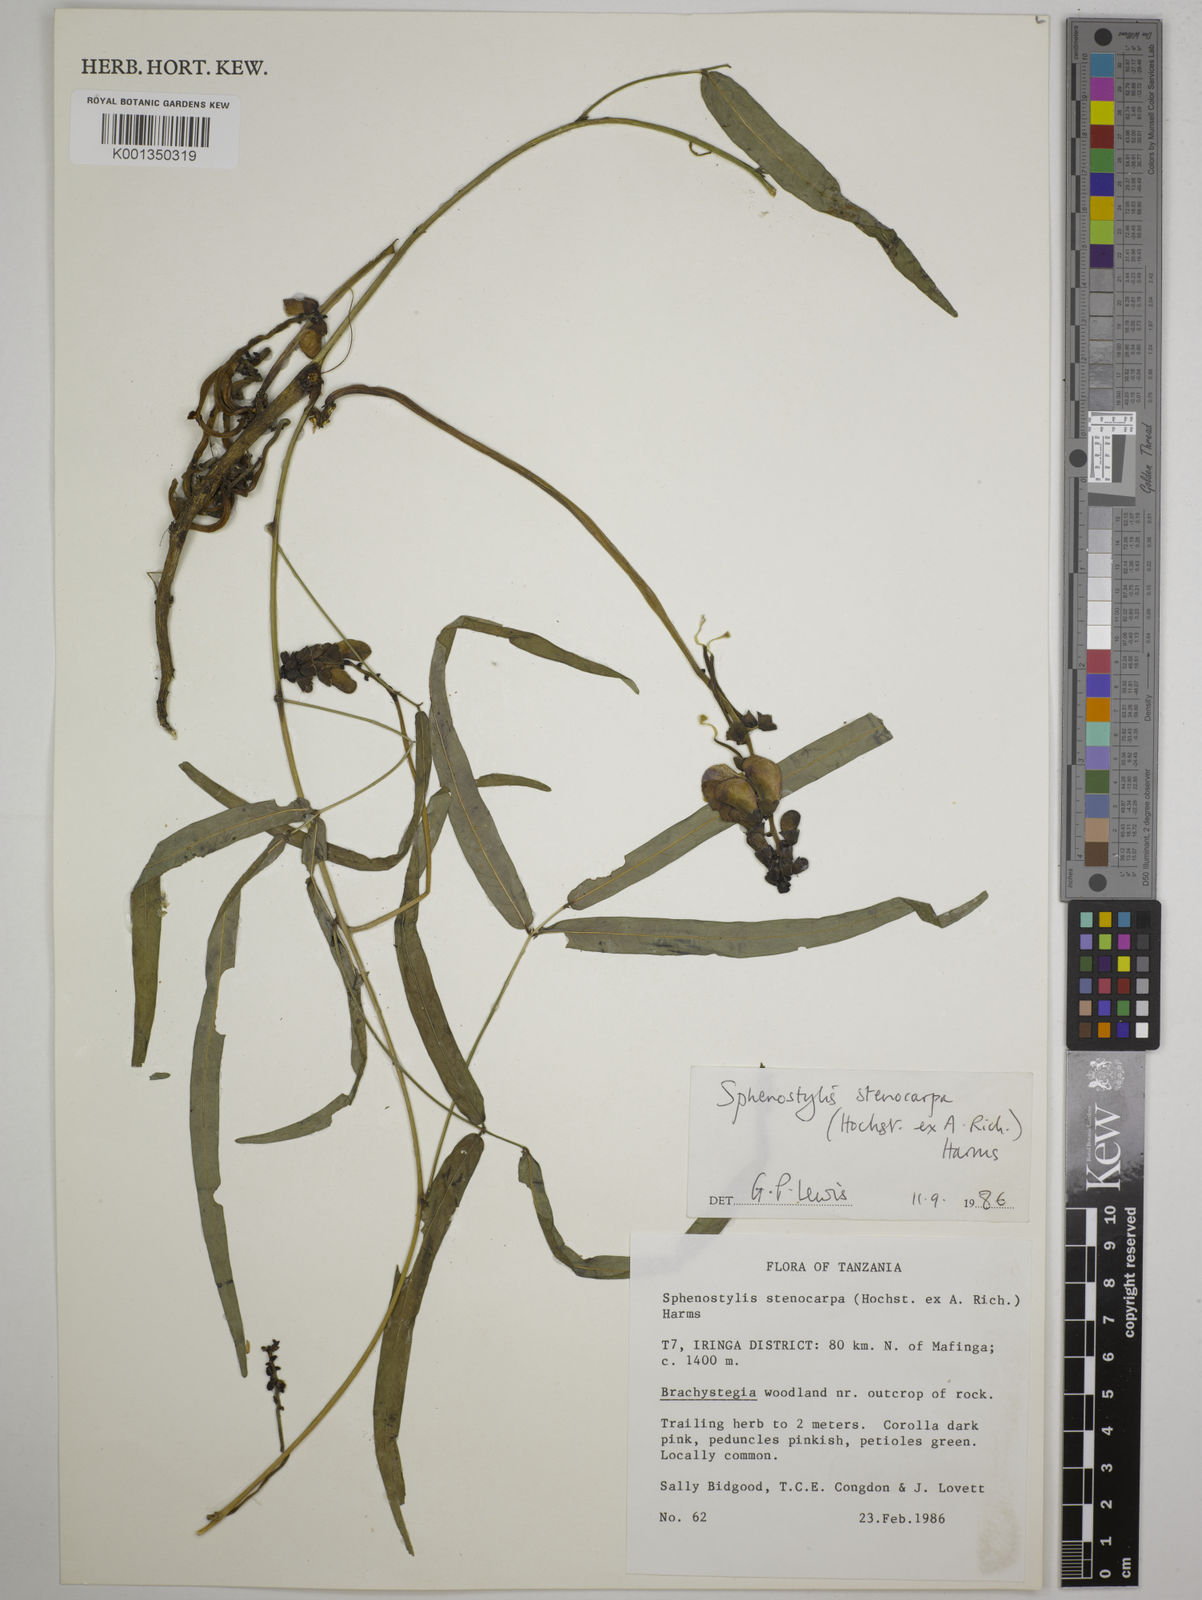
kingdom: Plantae
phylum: Tracheophyta
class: Magnoliopsida
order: Fabales
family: Fabaceae
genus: Sphenostylis
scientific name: Sphenostylis stenocarpa
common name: Yam-pea
